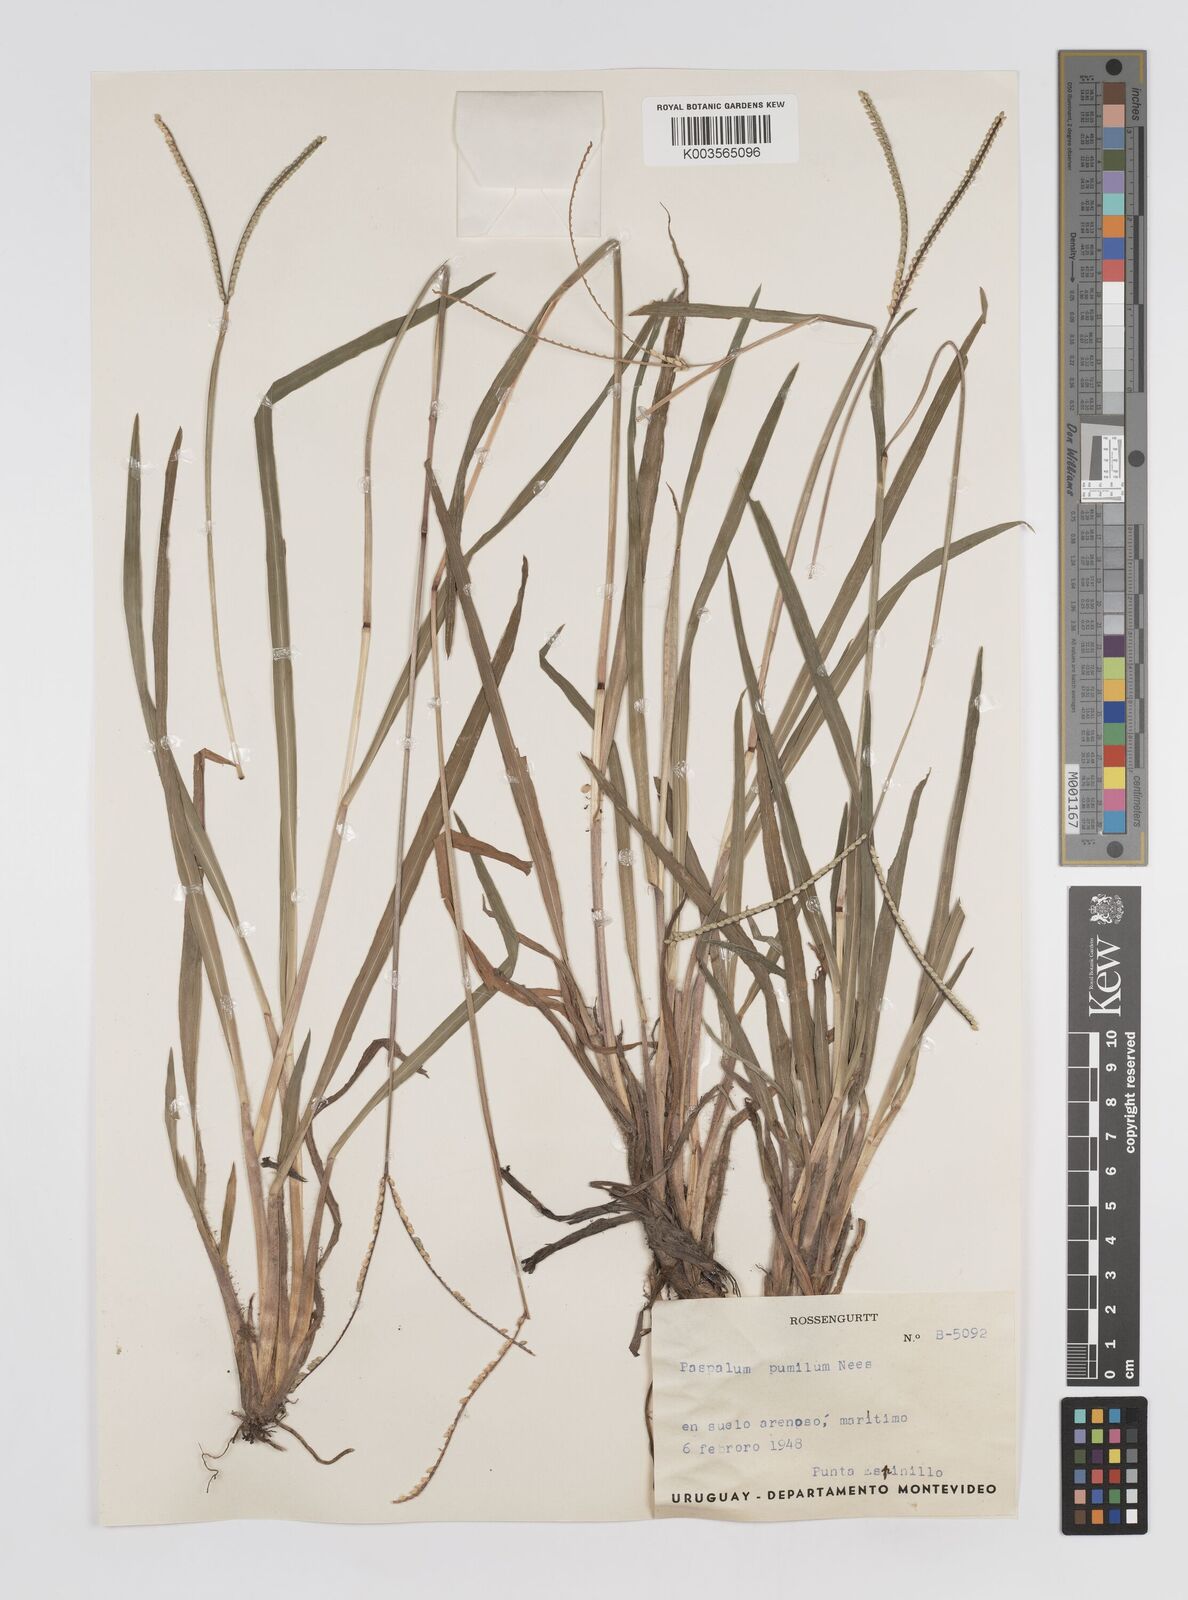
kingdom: Plantae
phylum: Tracheophyta
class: Liliopsida
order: Poales
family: Poaceae
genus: Paspalum
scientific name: Paspalum clavuliferum
